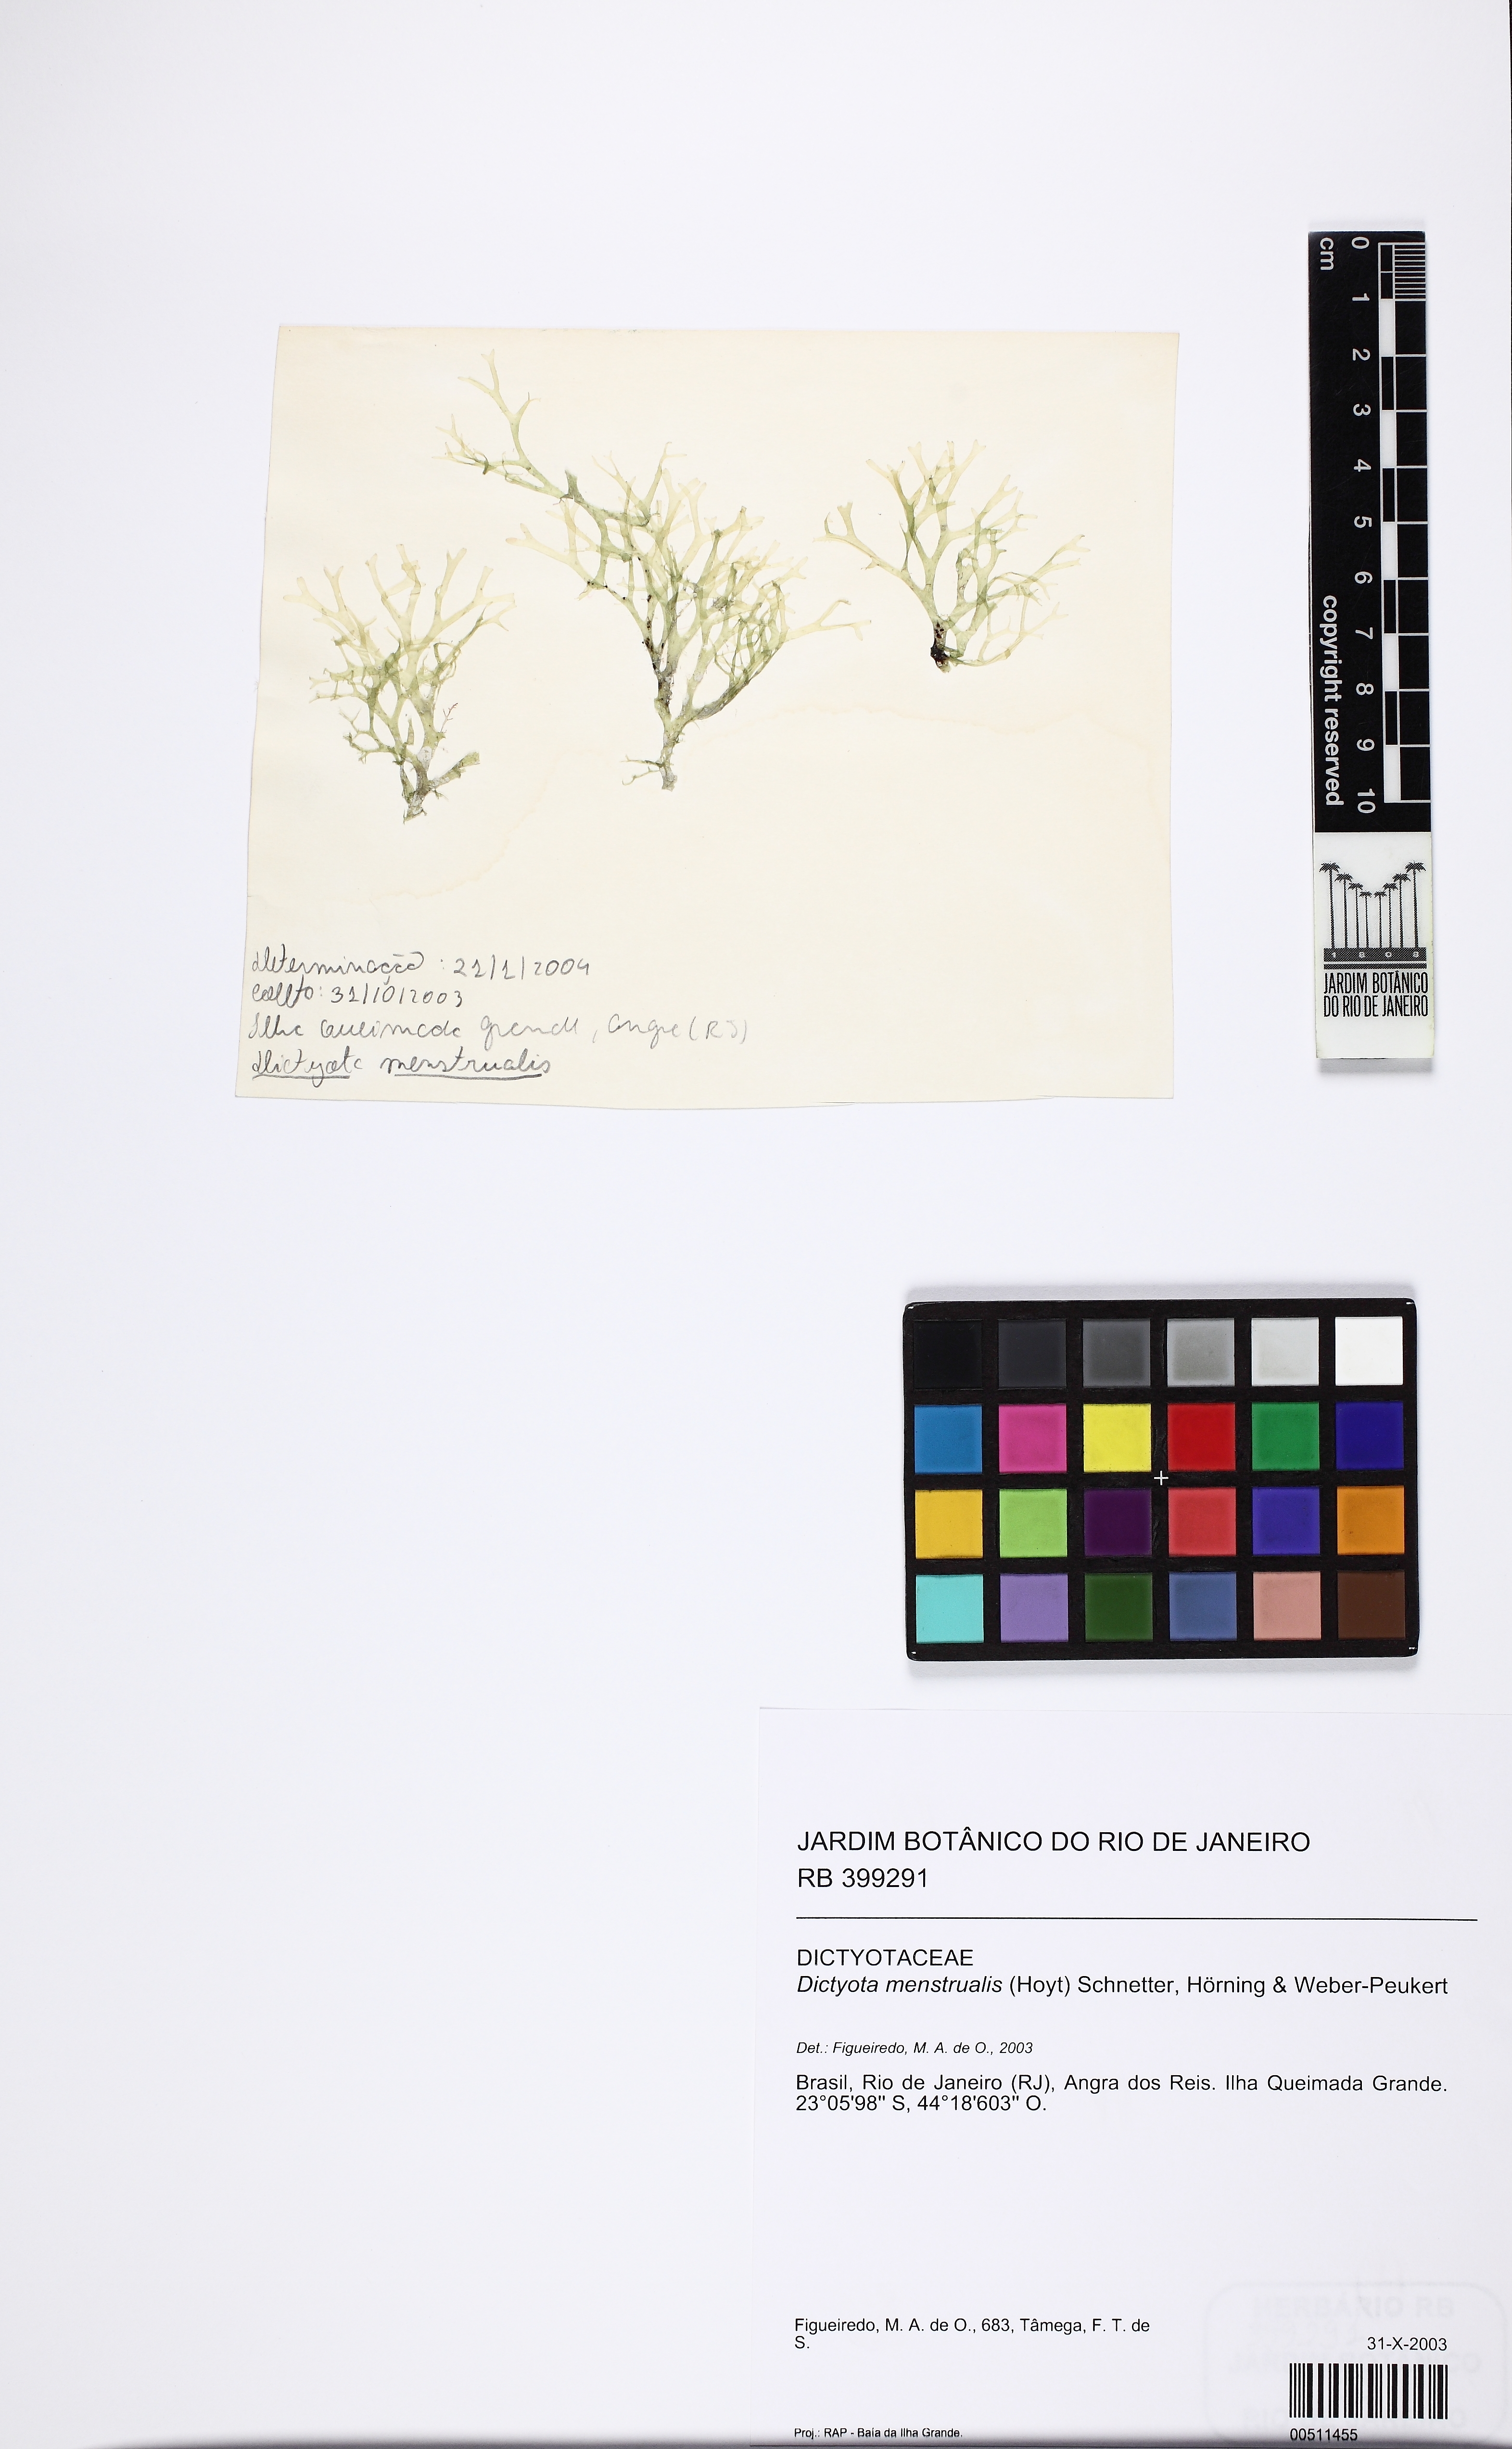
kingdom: Chromista
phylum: Ochrophyta
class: Phaeophyceae
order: Dictyotales
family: Dictyotaceae
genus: Dictyota
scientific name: Dictyota menstrualis
